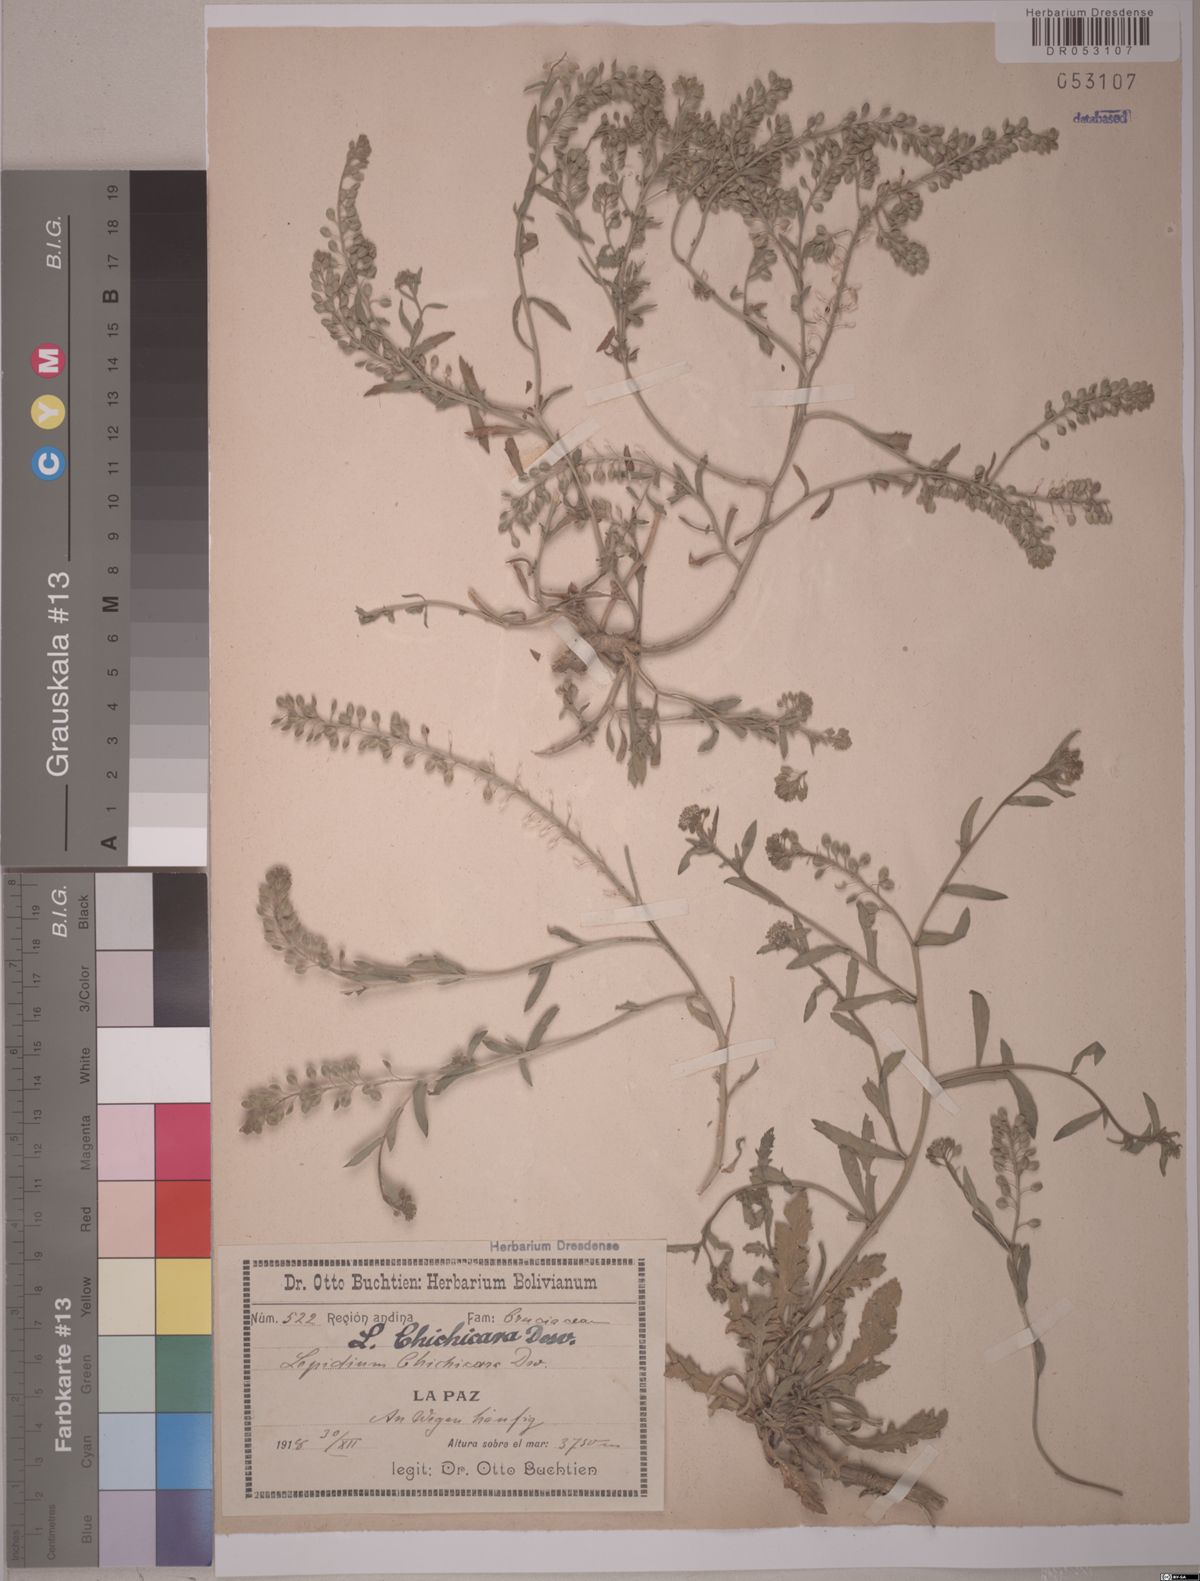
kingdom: Plantae
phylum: Tracheophyta
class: Magnoliopsida
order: Brassicales
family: Brassicaceae
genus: Lepidium
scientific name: Lepidium chichicara
